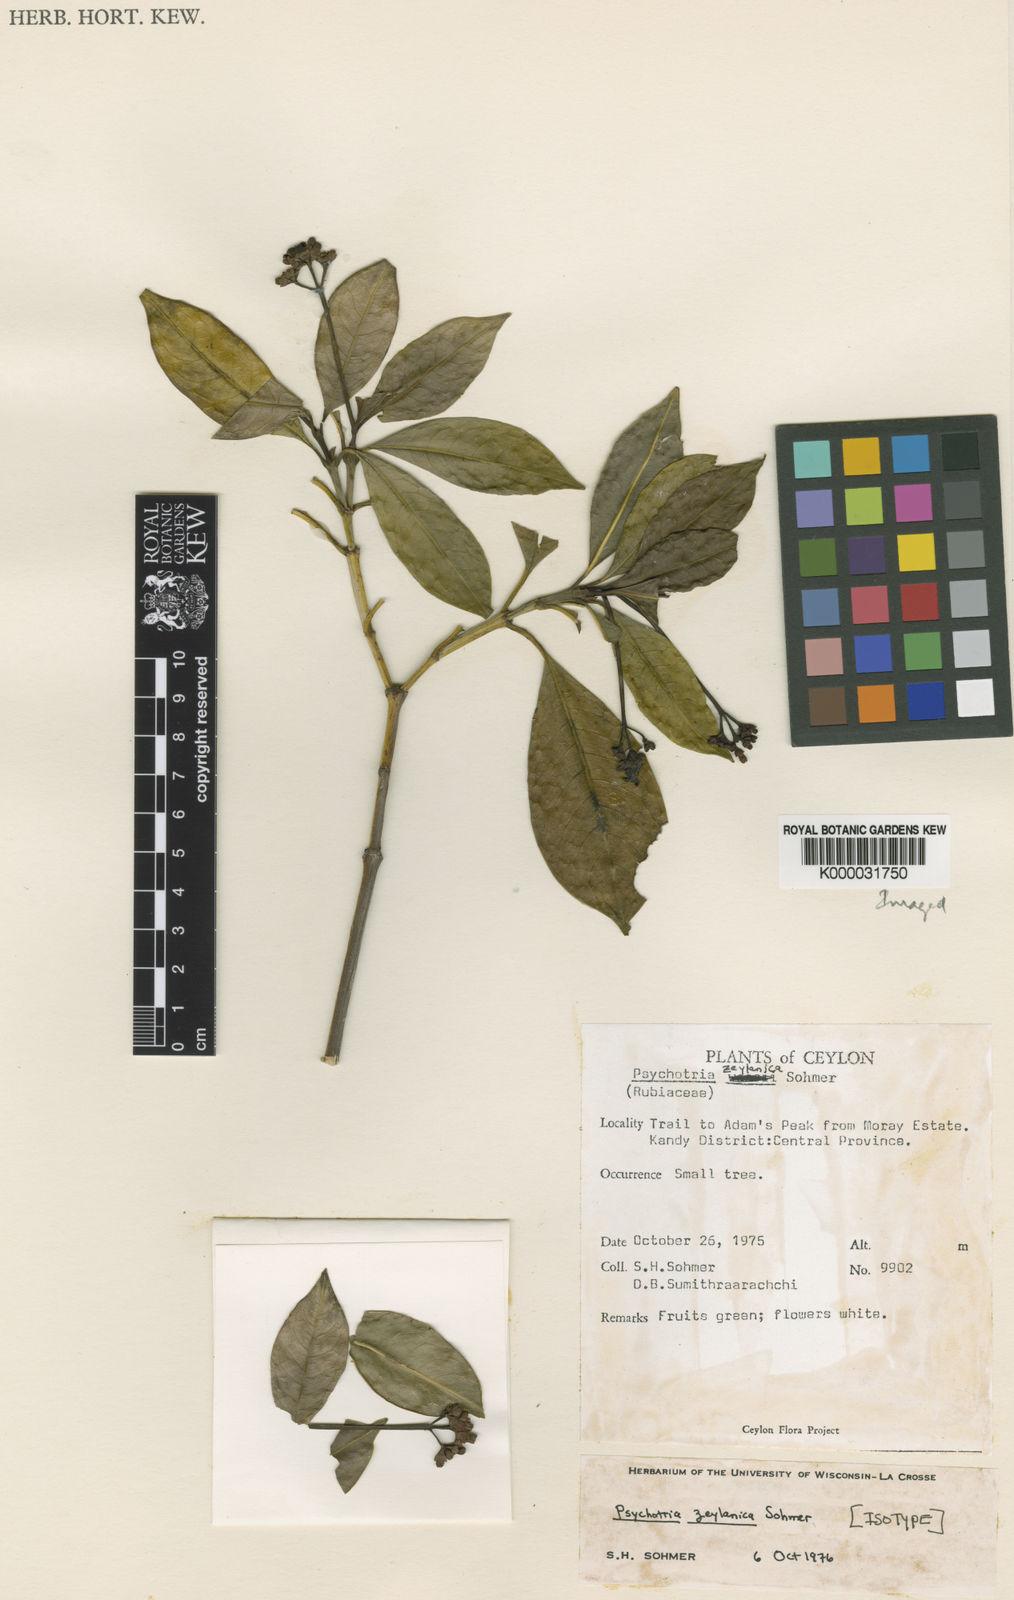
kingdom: Plantae
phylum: Tracheophyta
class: Magnoliopsida
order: Gentianales
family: Rubiaceae
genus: Psychotria
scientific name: Psychotria zeylanica
